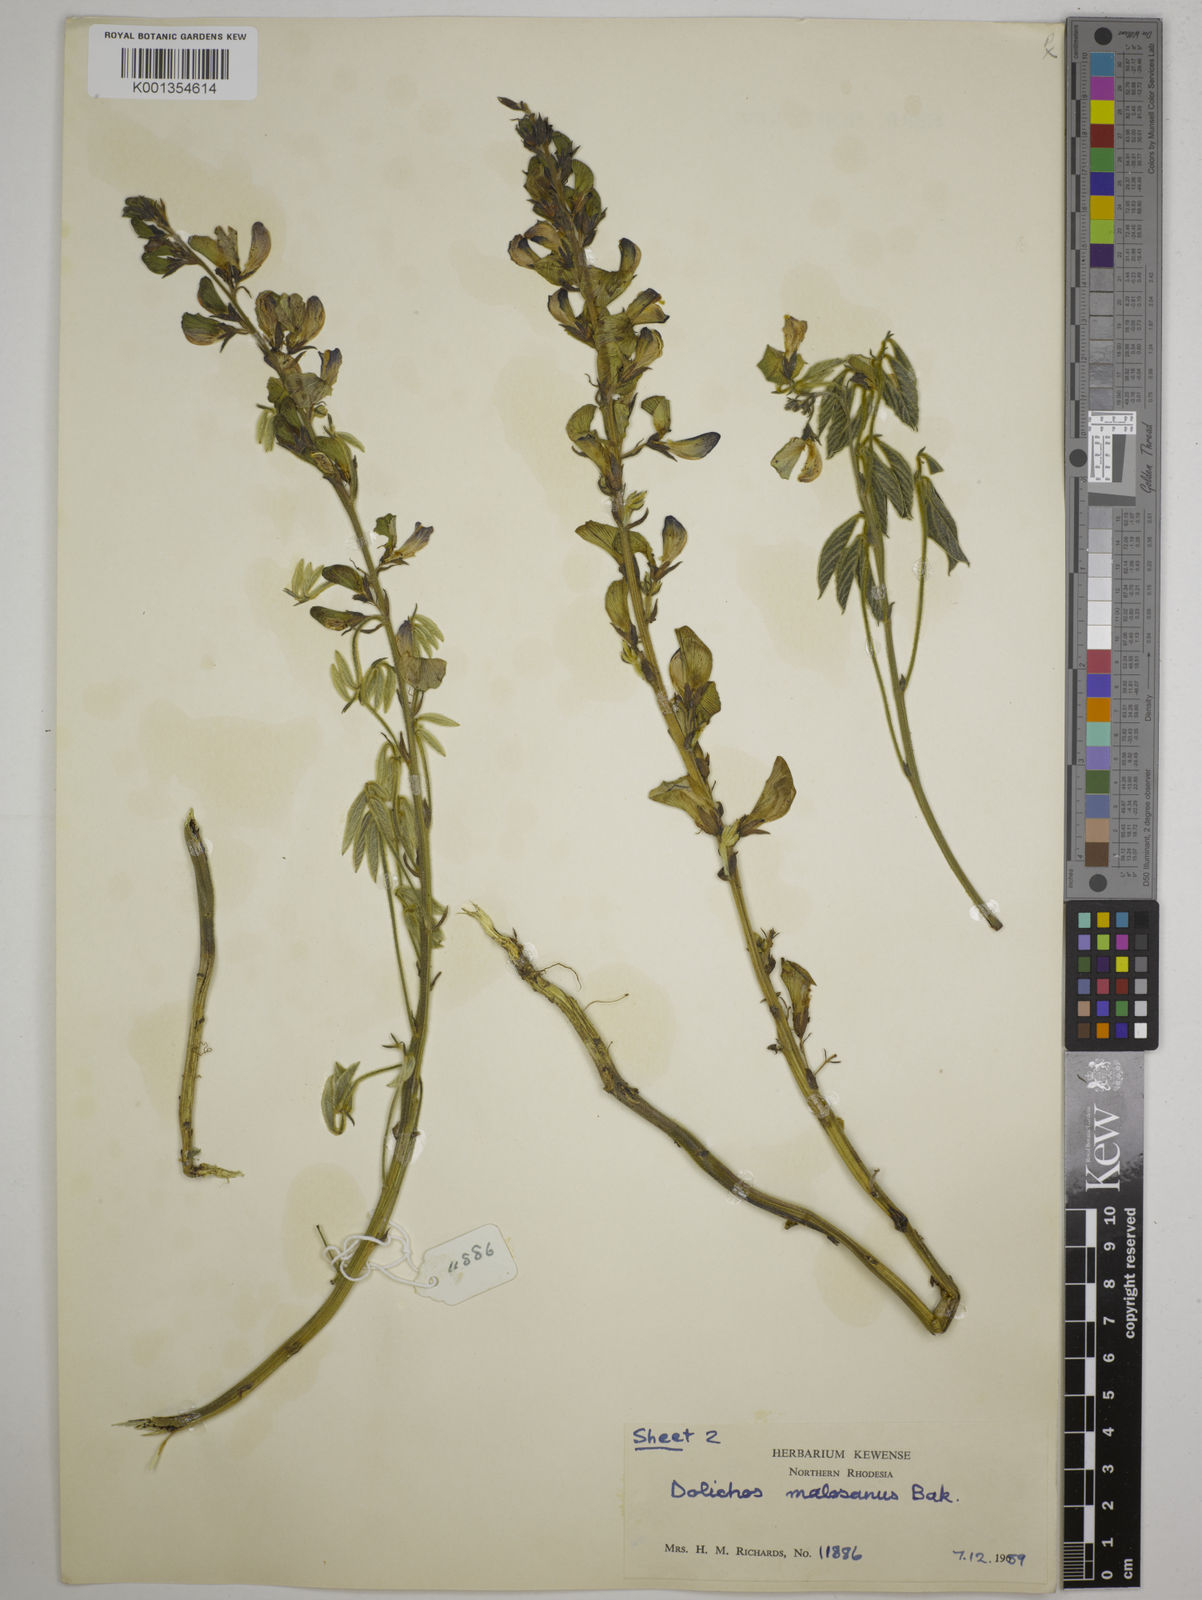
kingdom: Plantae
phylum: Tracheophyta
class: Magnoliopsida
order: Fabales
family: Fabaceae
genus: Dolichos
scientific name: Dolichos kilimandscharicus
